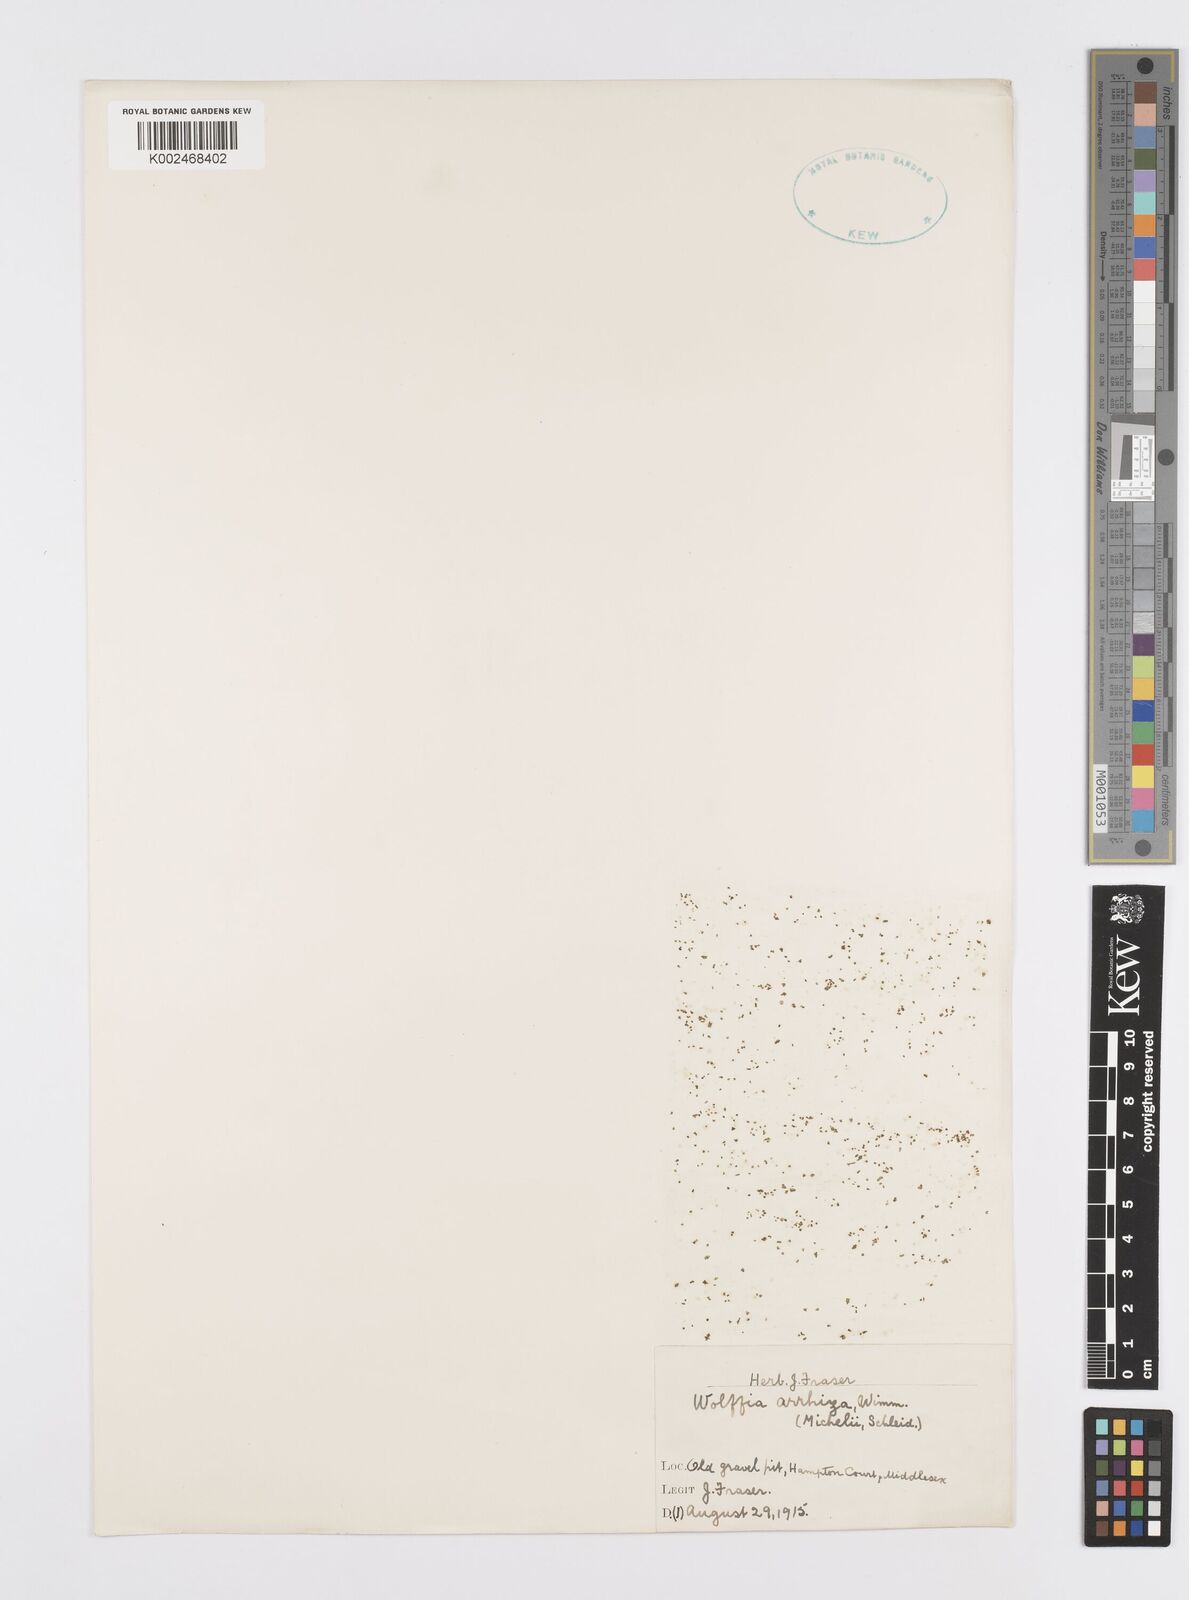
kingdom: Plantae
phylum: Tracheophyta
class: Liliopsida
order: Alismatales
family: Araceae
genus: Wolffia
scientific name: Wolffia arrhiza
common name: Rootless duckweed
